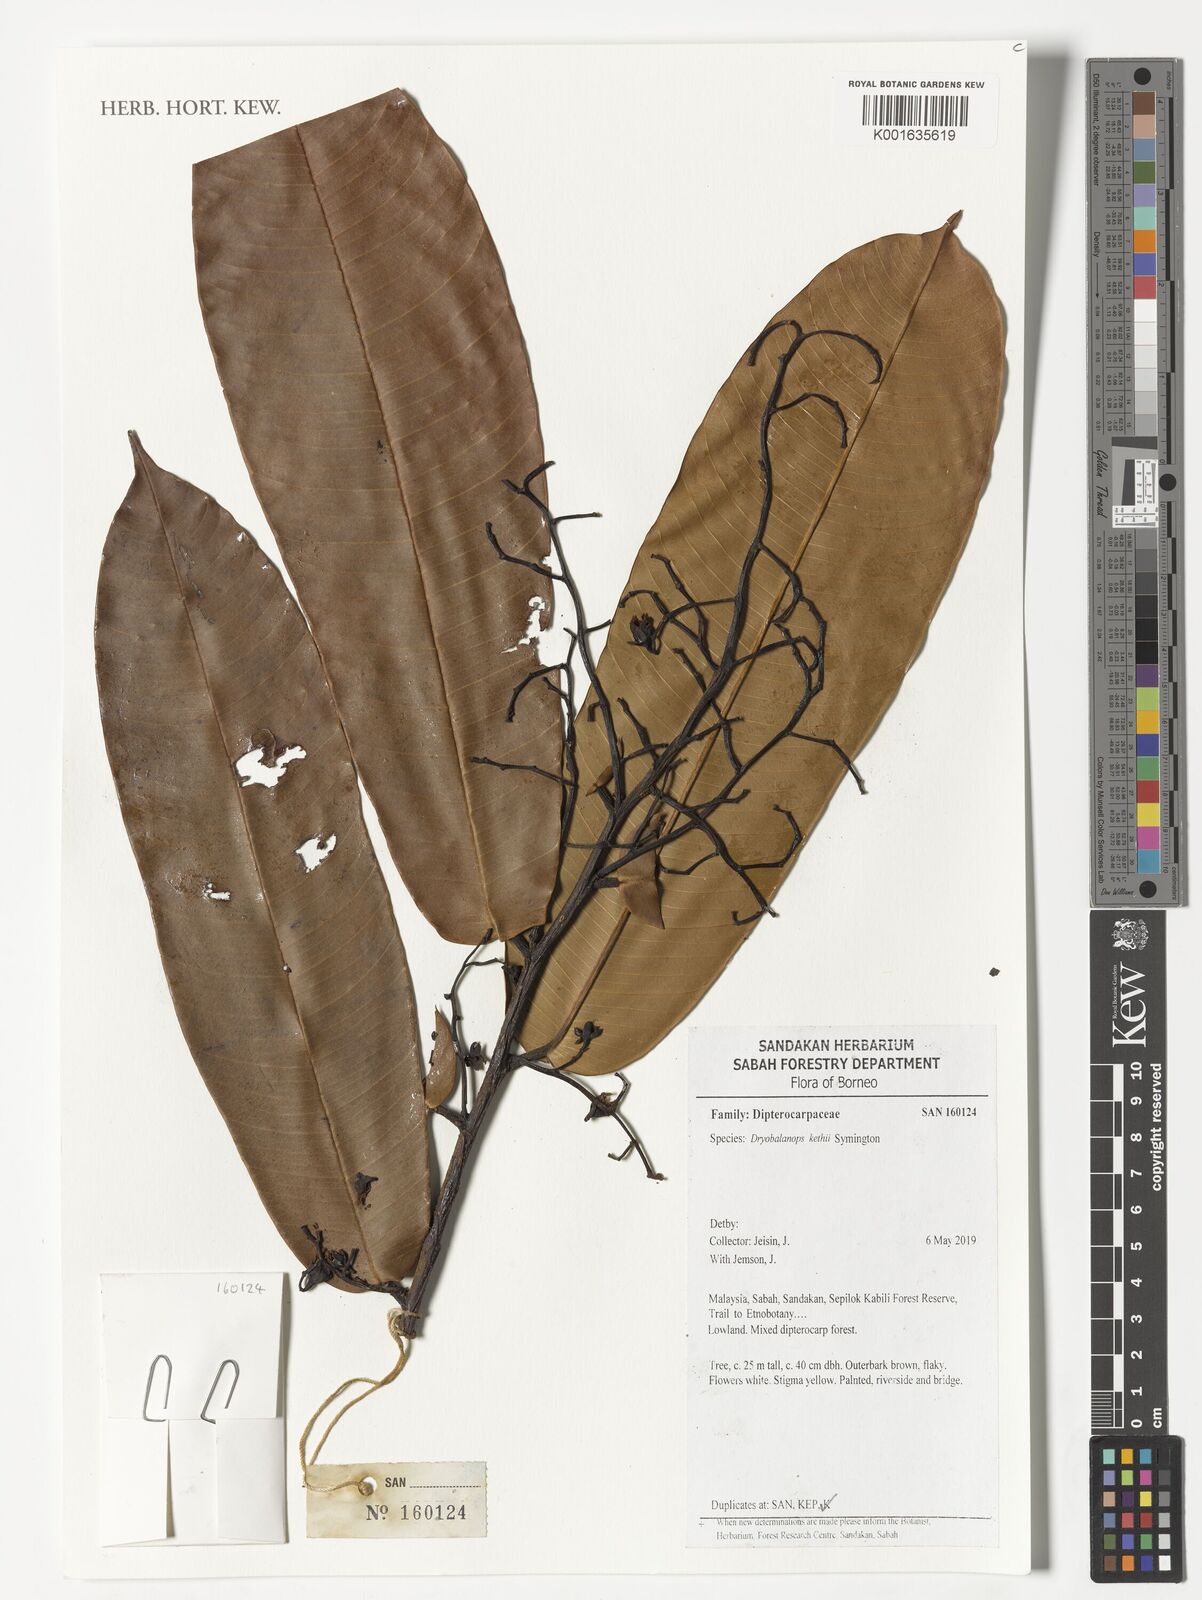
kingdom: Plantae
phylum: Tracheophyta
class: Magnoliopsida
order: Malvales
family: Dipterocarpaceae
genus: Dryobalanops
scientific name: Dryobalanops keithii
